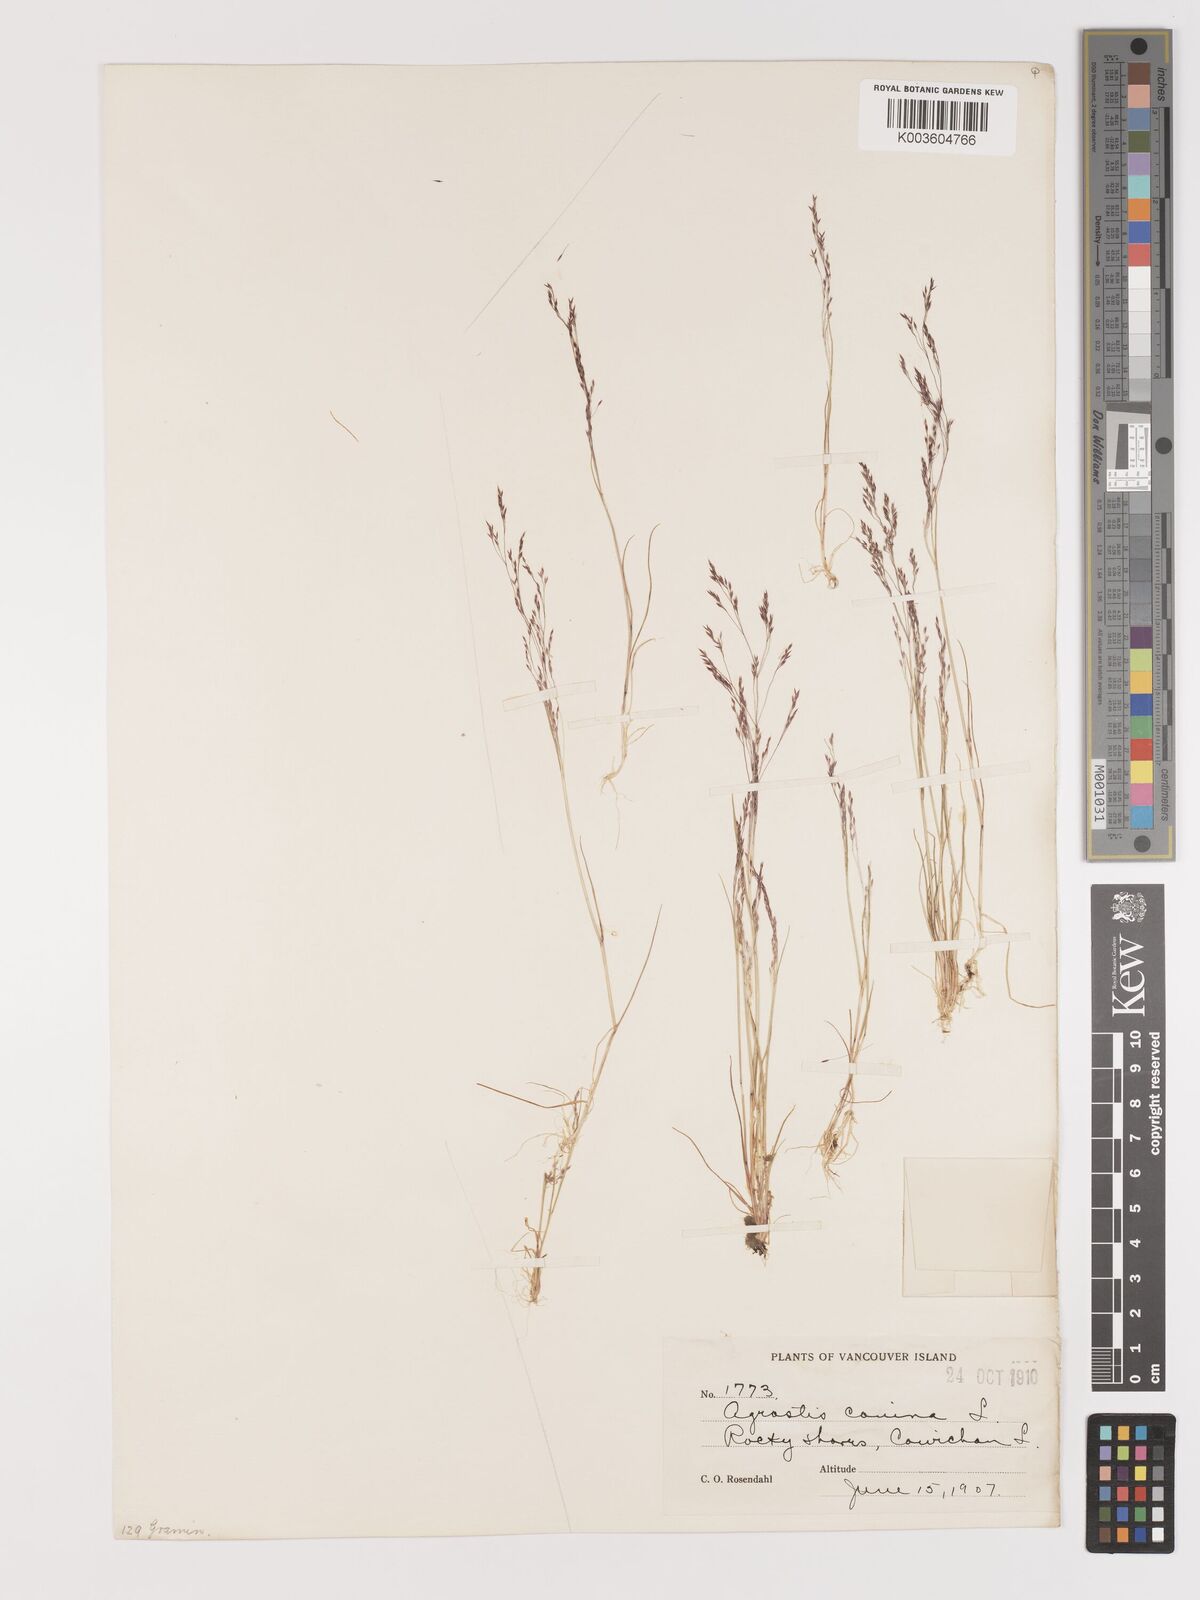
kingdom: Plantae
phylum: Tracheophyta
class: Liliopsida
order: Poales
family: Poaceae
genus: Agrostis
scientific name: Agrostis canina
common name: Velvet bent
